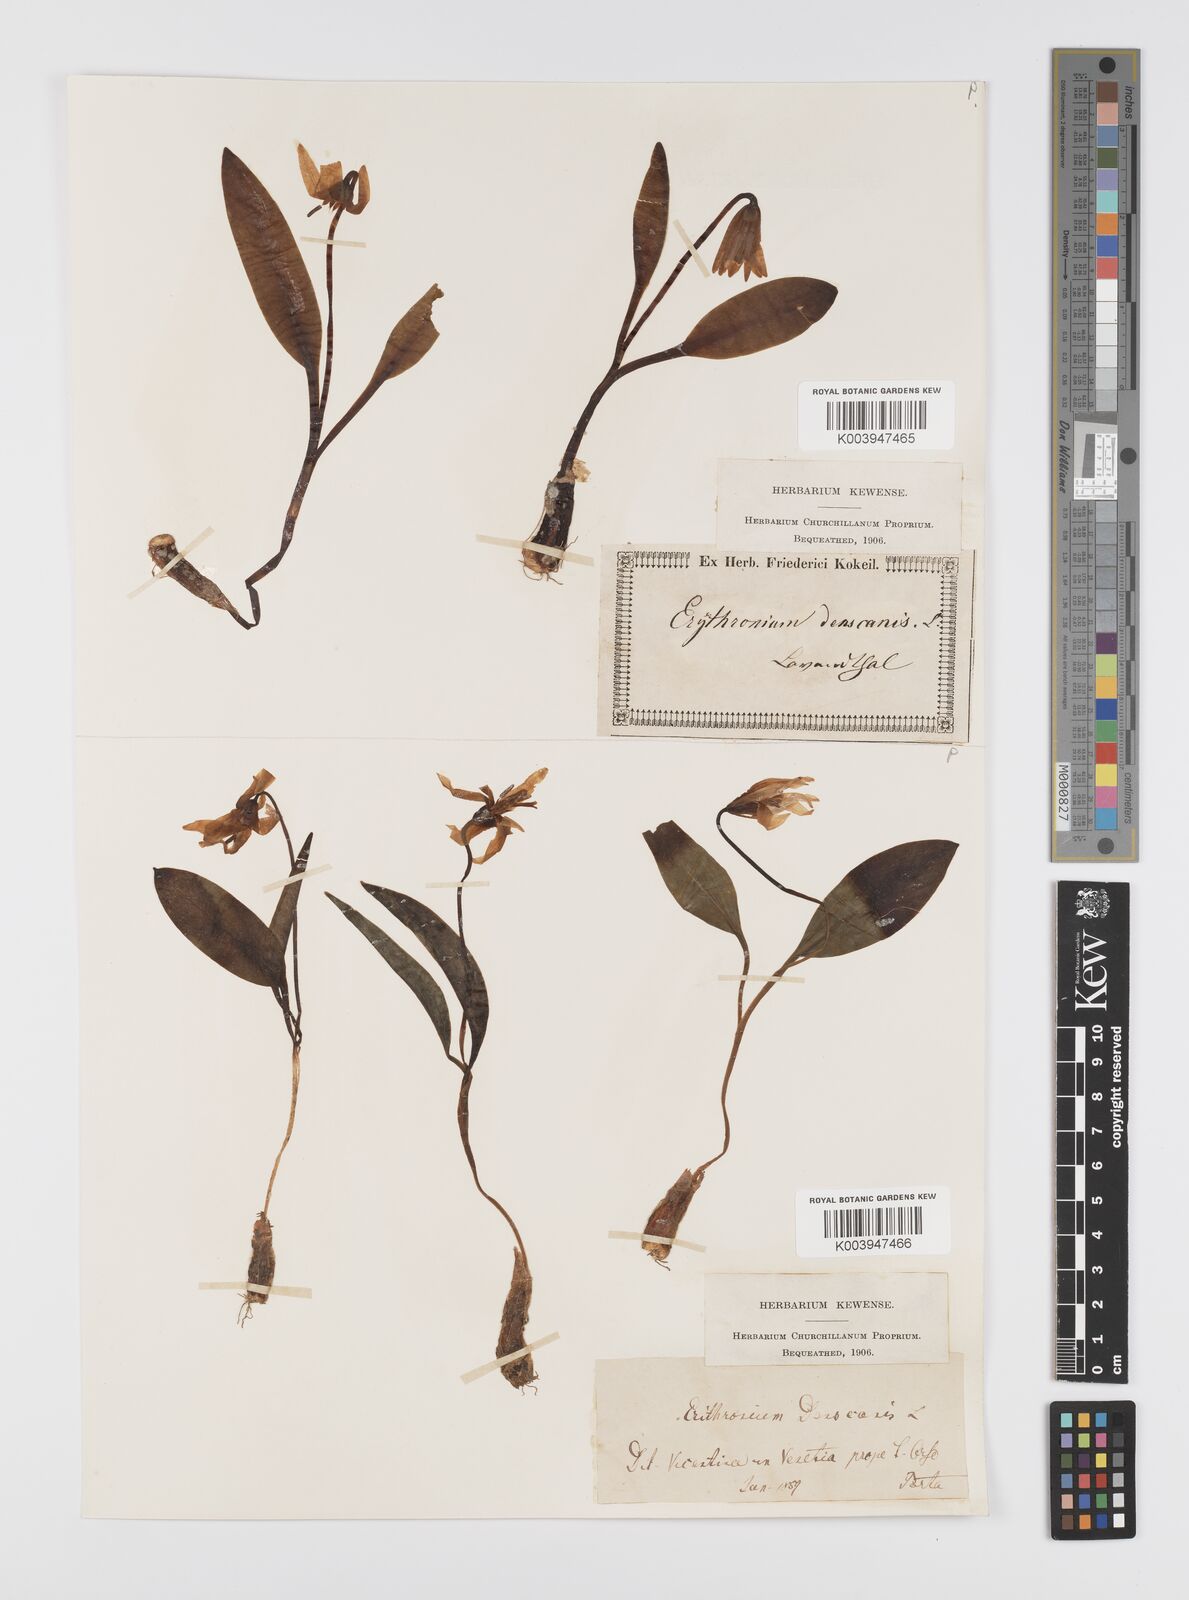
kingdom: Plantae
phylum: Tracheophyta
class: Liliopsida
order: Liliales
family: Liliaceae
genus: Erythronium
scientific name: Erythronium dens-canis
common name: Dog's-tooth-violet
